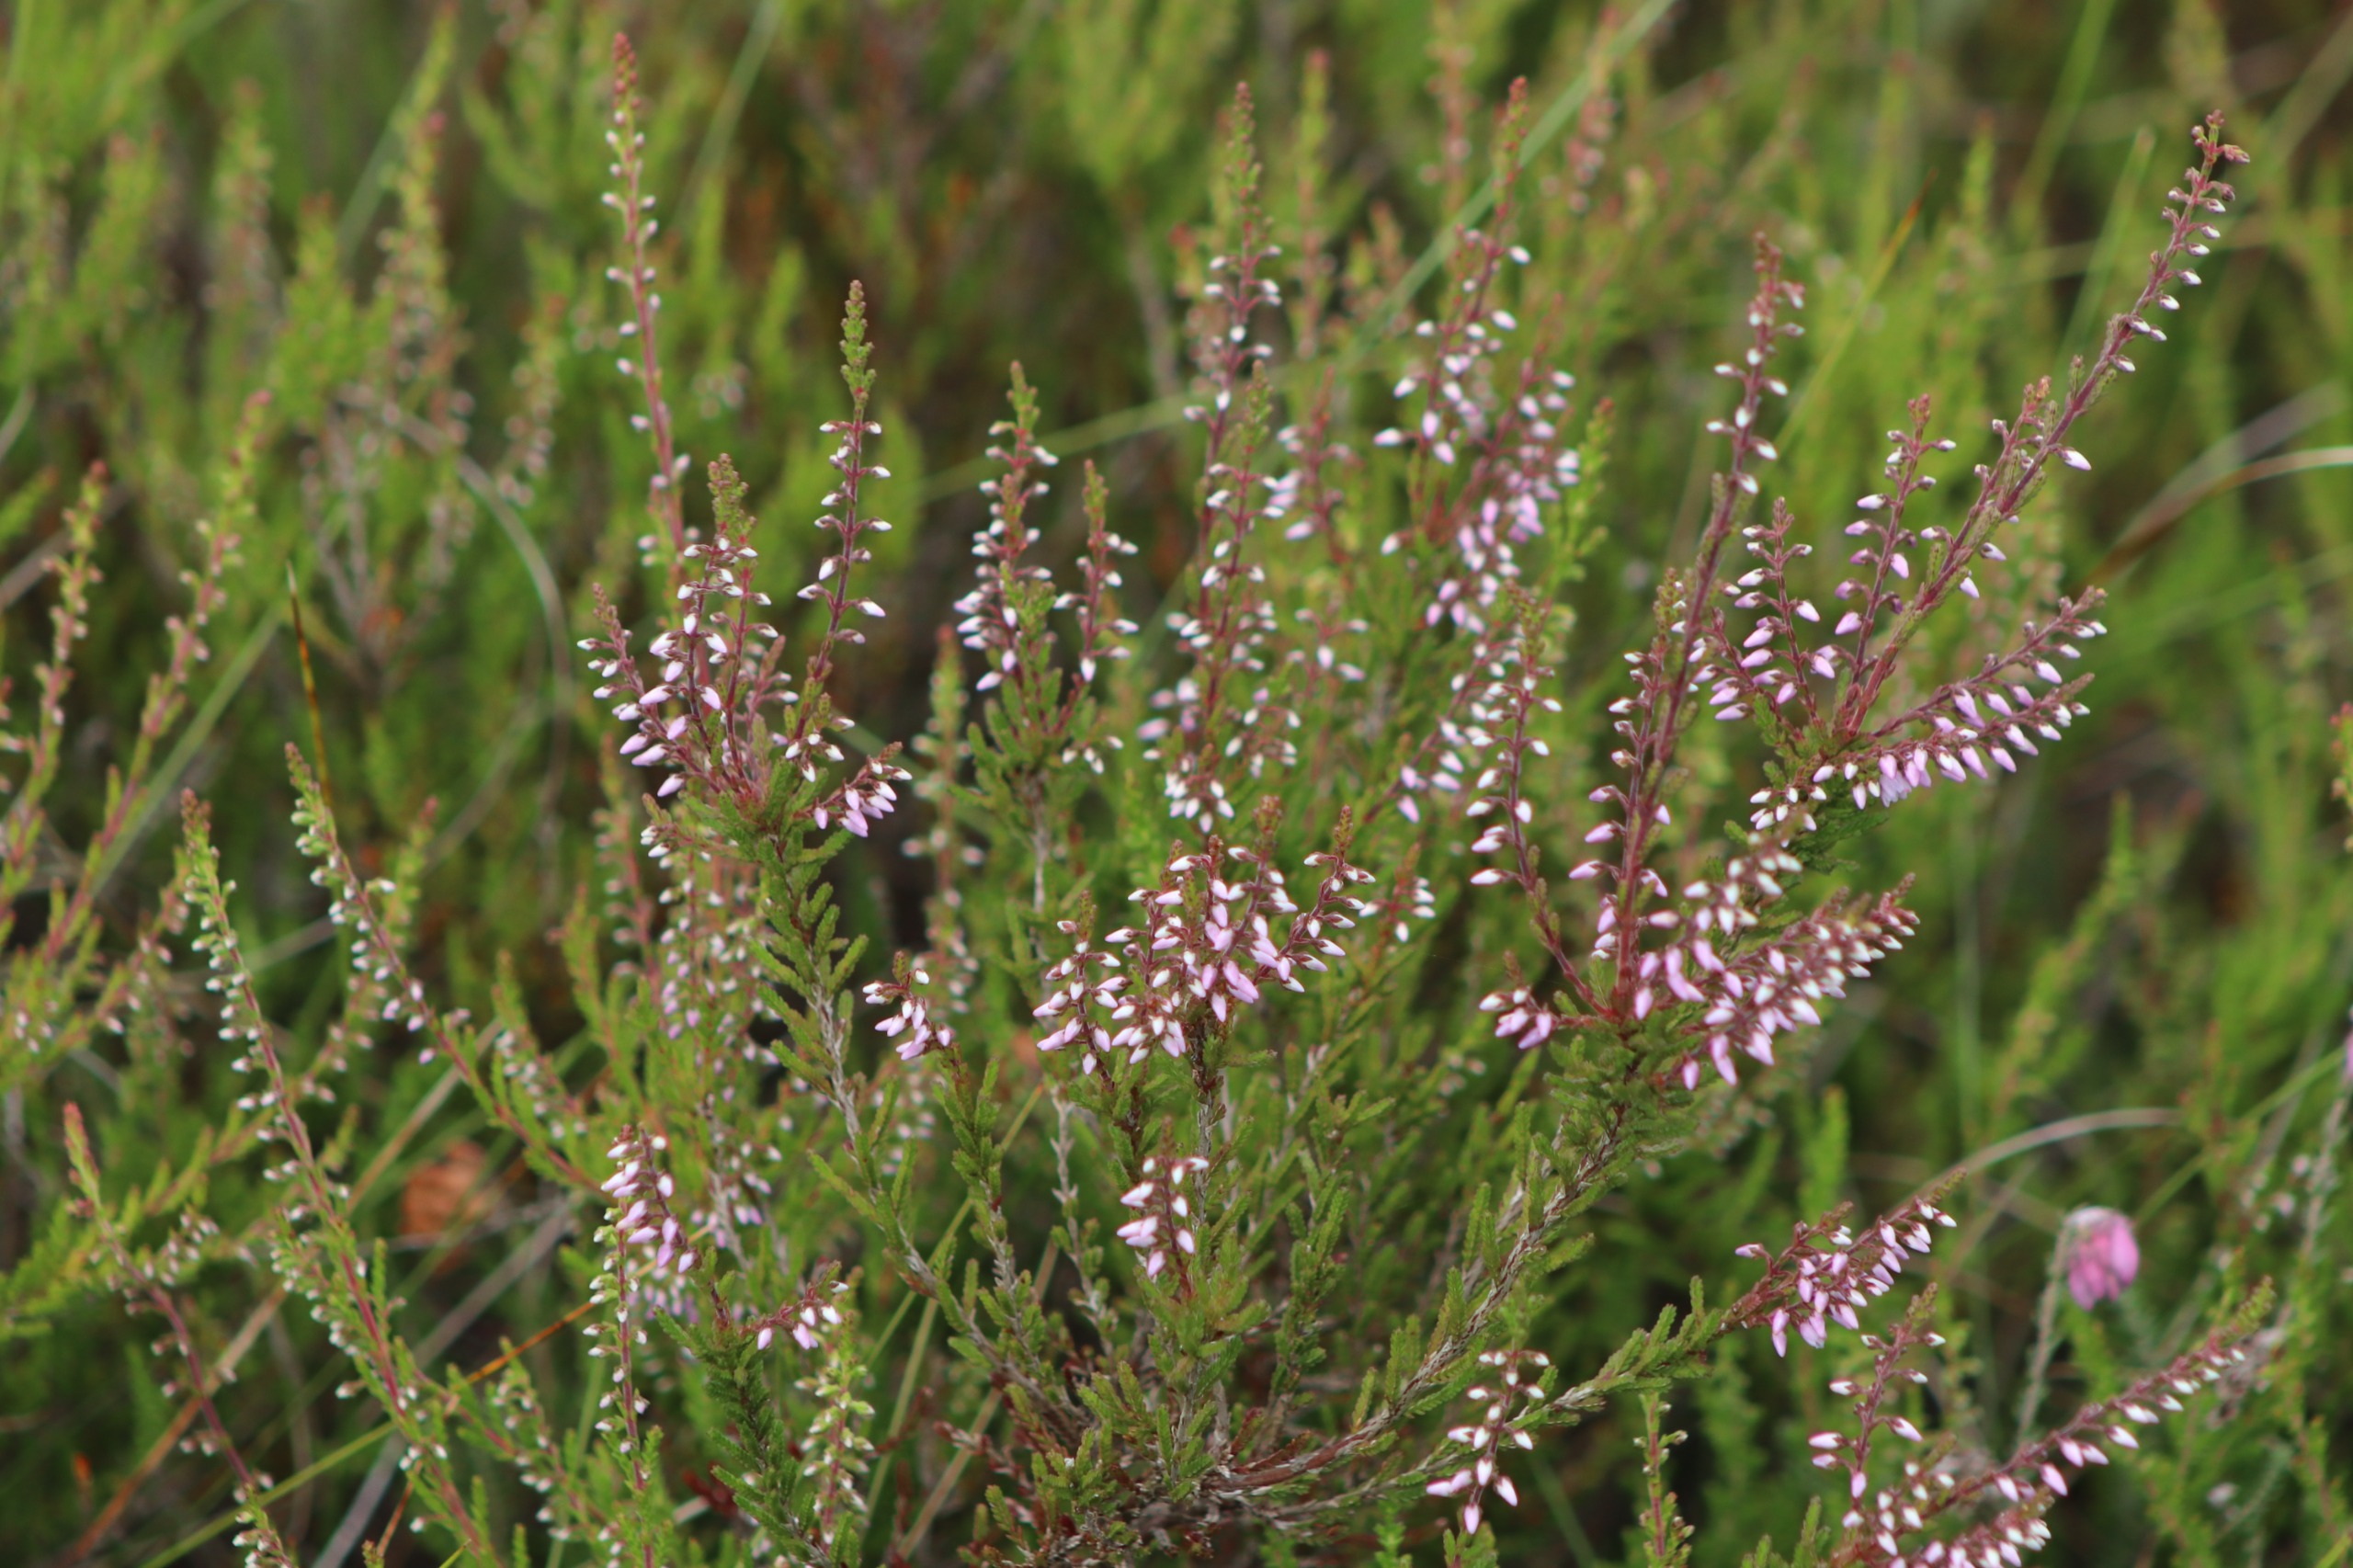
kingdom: Plantae
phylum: Tracheophyta
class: Magnoliopsida
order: Ericales
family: Ericaceae
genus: Calluna
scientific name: Calluna vulgaris
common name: Hedelyng
